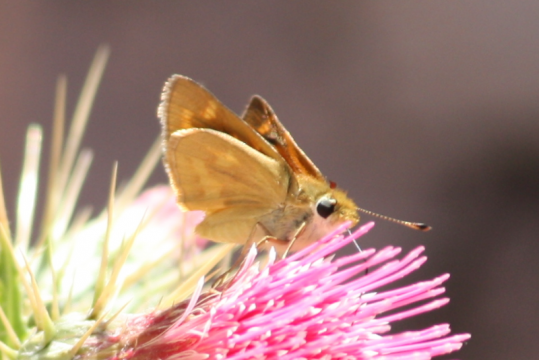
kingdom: Animalia
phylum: Arthropoda
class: Insecta
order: Lepidoptera
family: Hesperiidae
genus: Ochlodes
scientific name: Ochlodes sylvanoides
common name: Woodland Skipper
